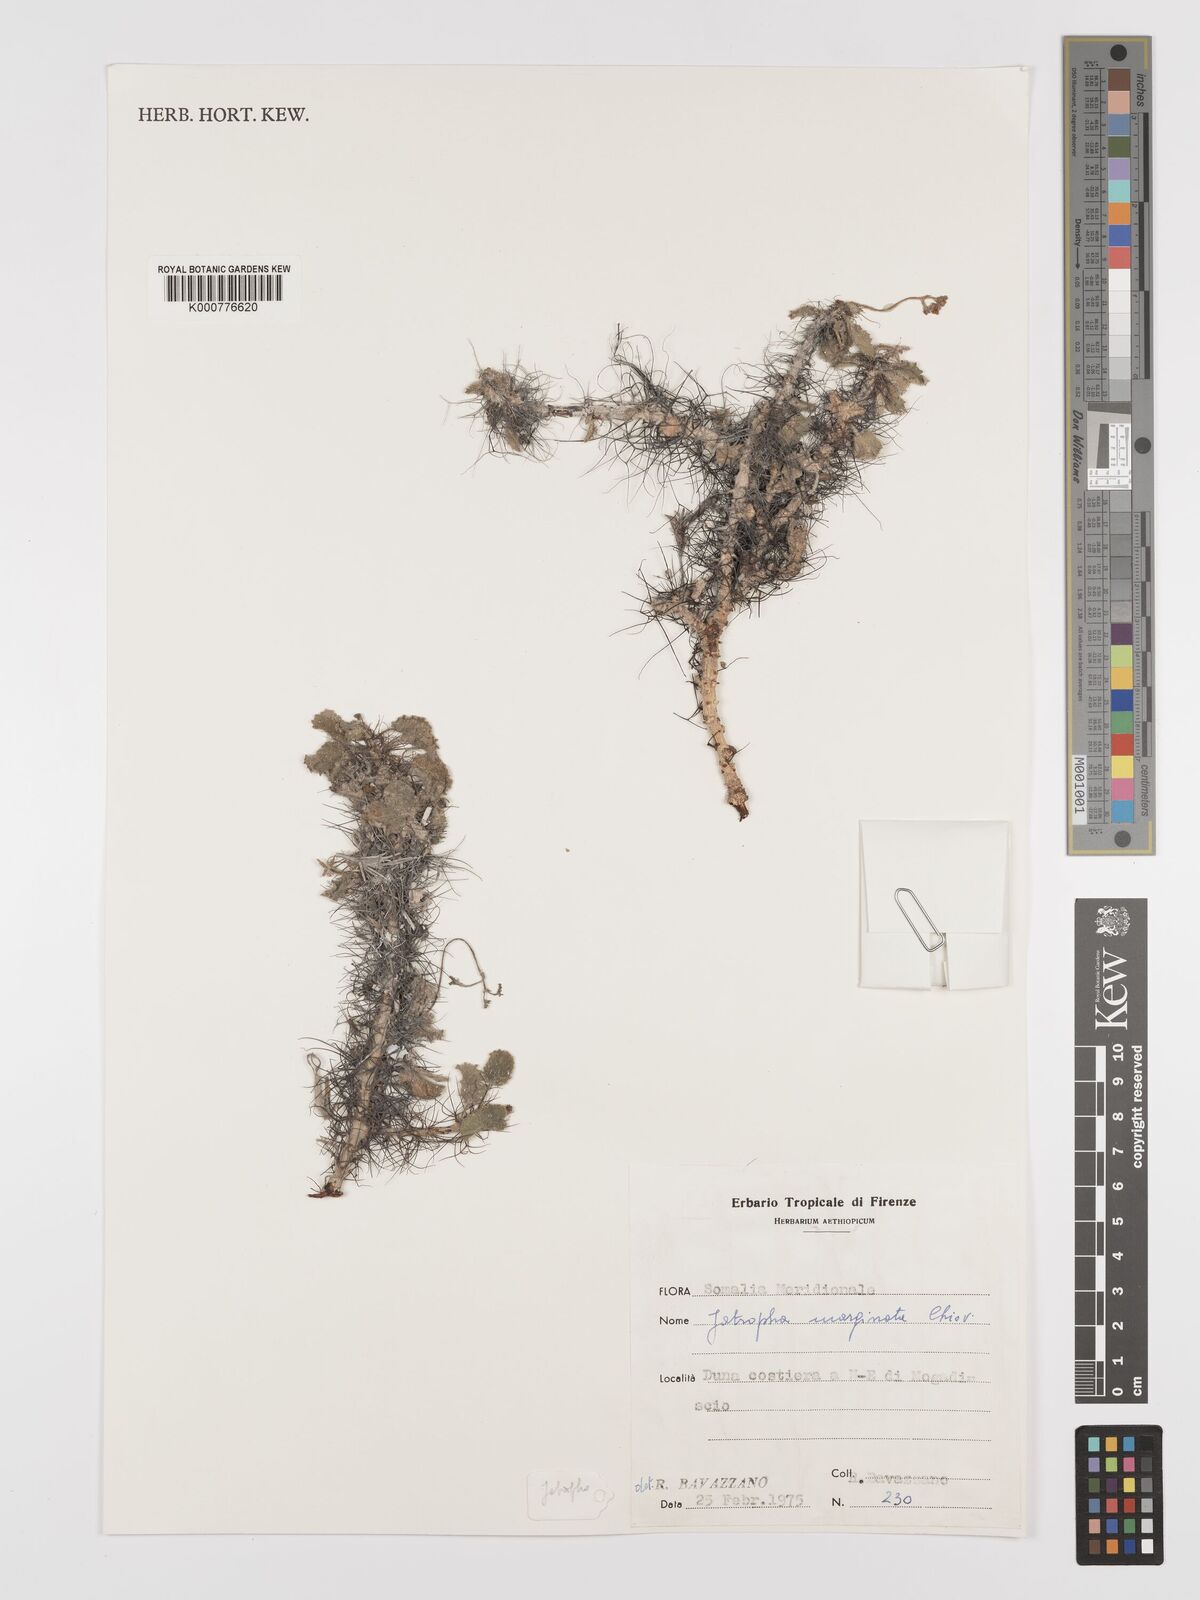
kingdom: Plantae
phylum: Tracheophyta
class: Magnoliopsida
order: Malpighiales
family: Euphorbiaceae
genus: Jatropha
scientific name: Jatropha
